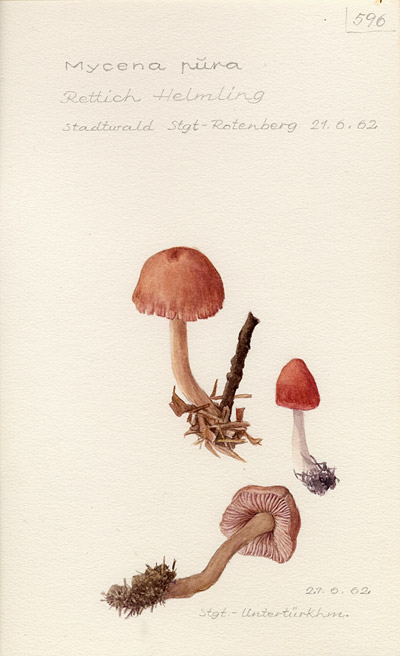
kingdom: Fungi
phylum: Basidiomycota
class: Agaricomycetes
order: Agaricales
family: Mycenaceae
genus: Mycena
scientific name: Mycena pura
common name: Lilac bonnet
